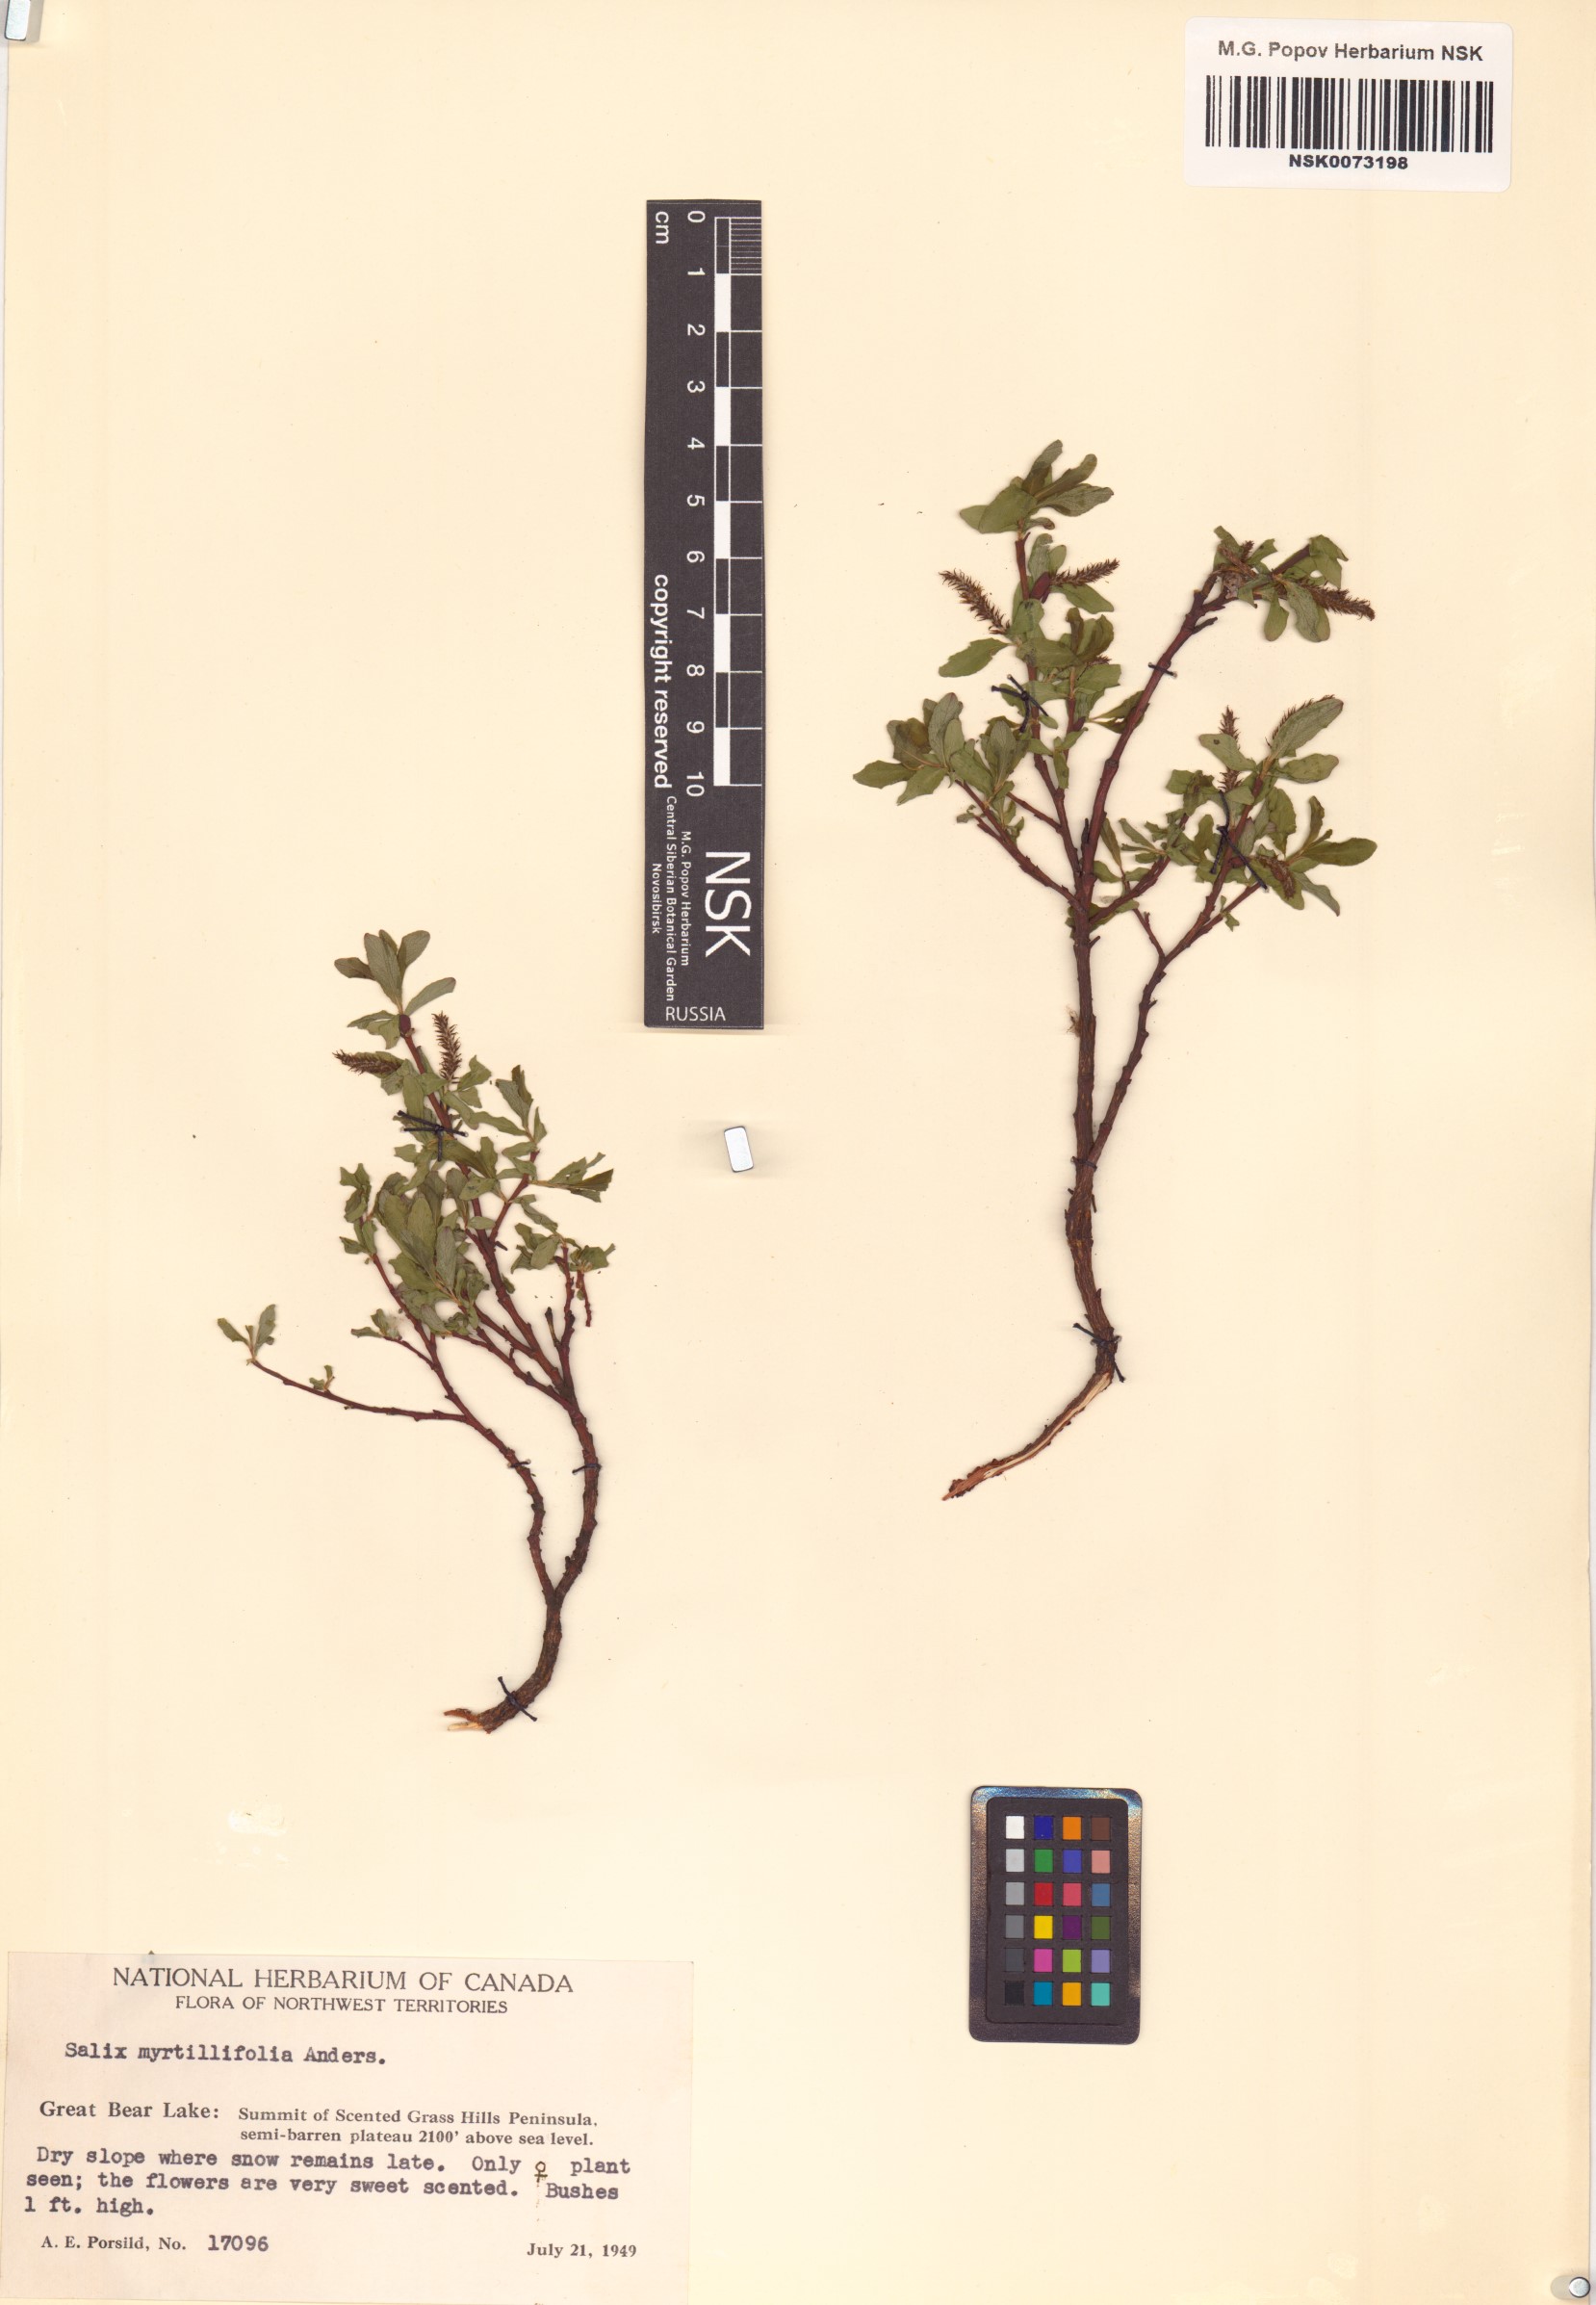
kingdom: Plantae
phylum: Tracheophyta
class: Magnoliopsida
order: Malpighiales
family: Salicaceae
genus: Salix
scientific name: Salix myrtillifolia
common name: Bilberry willow
